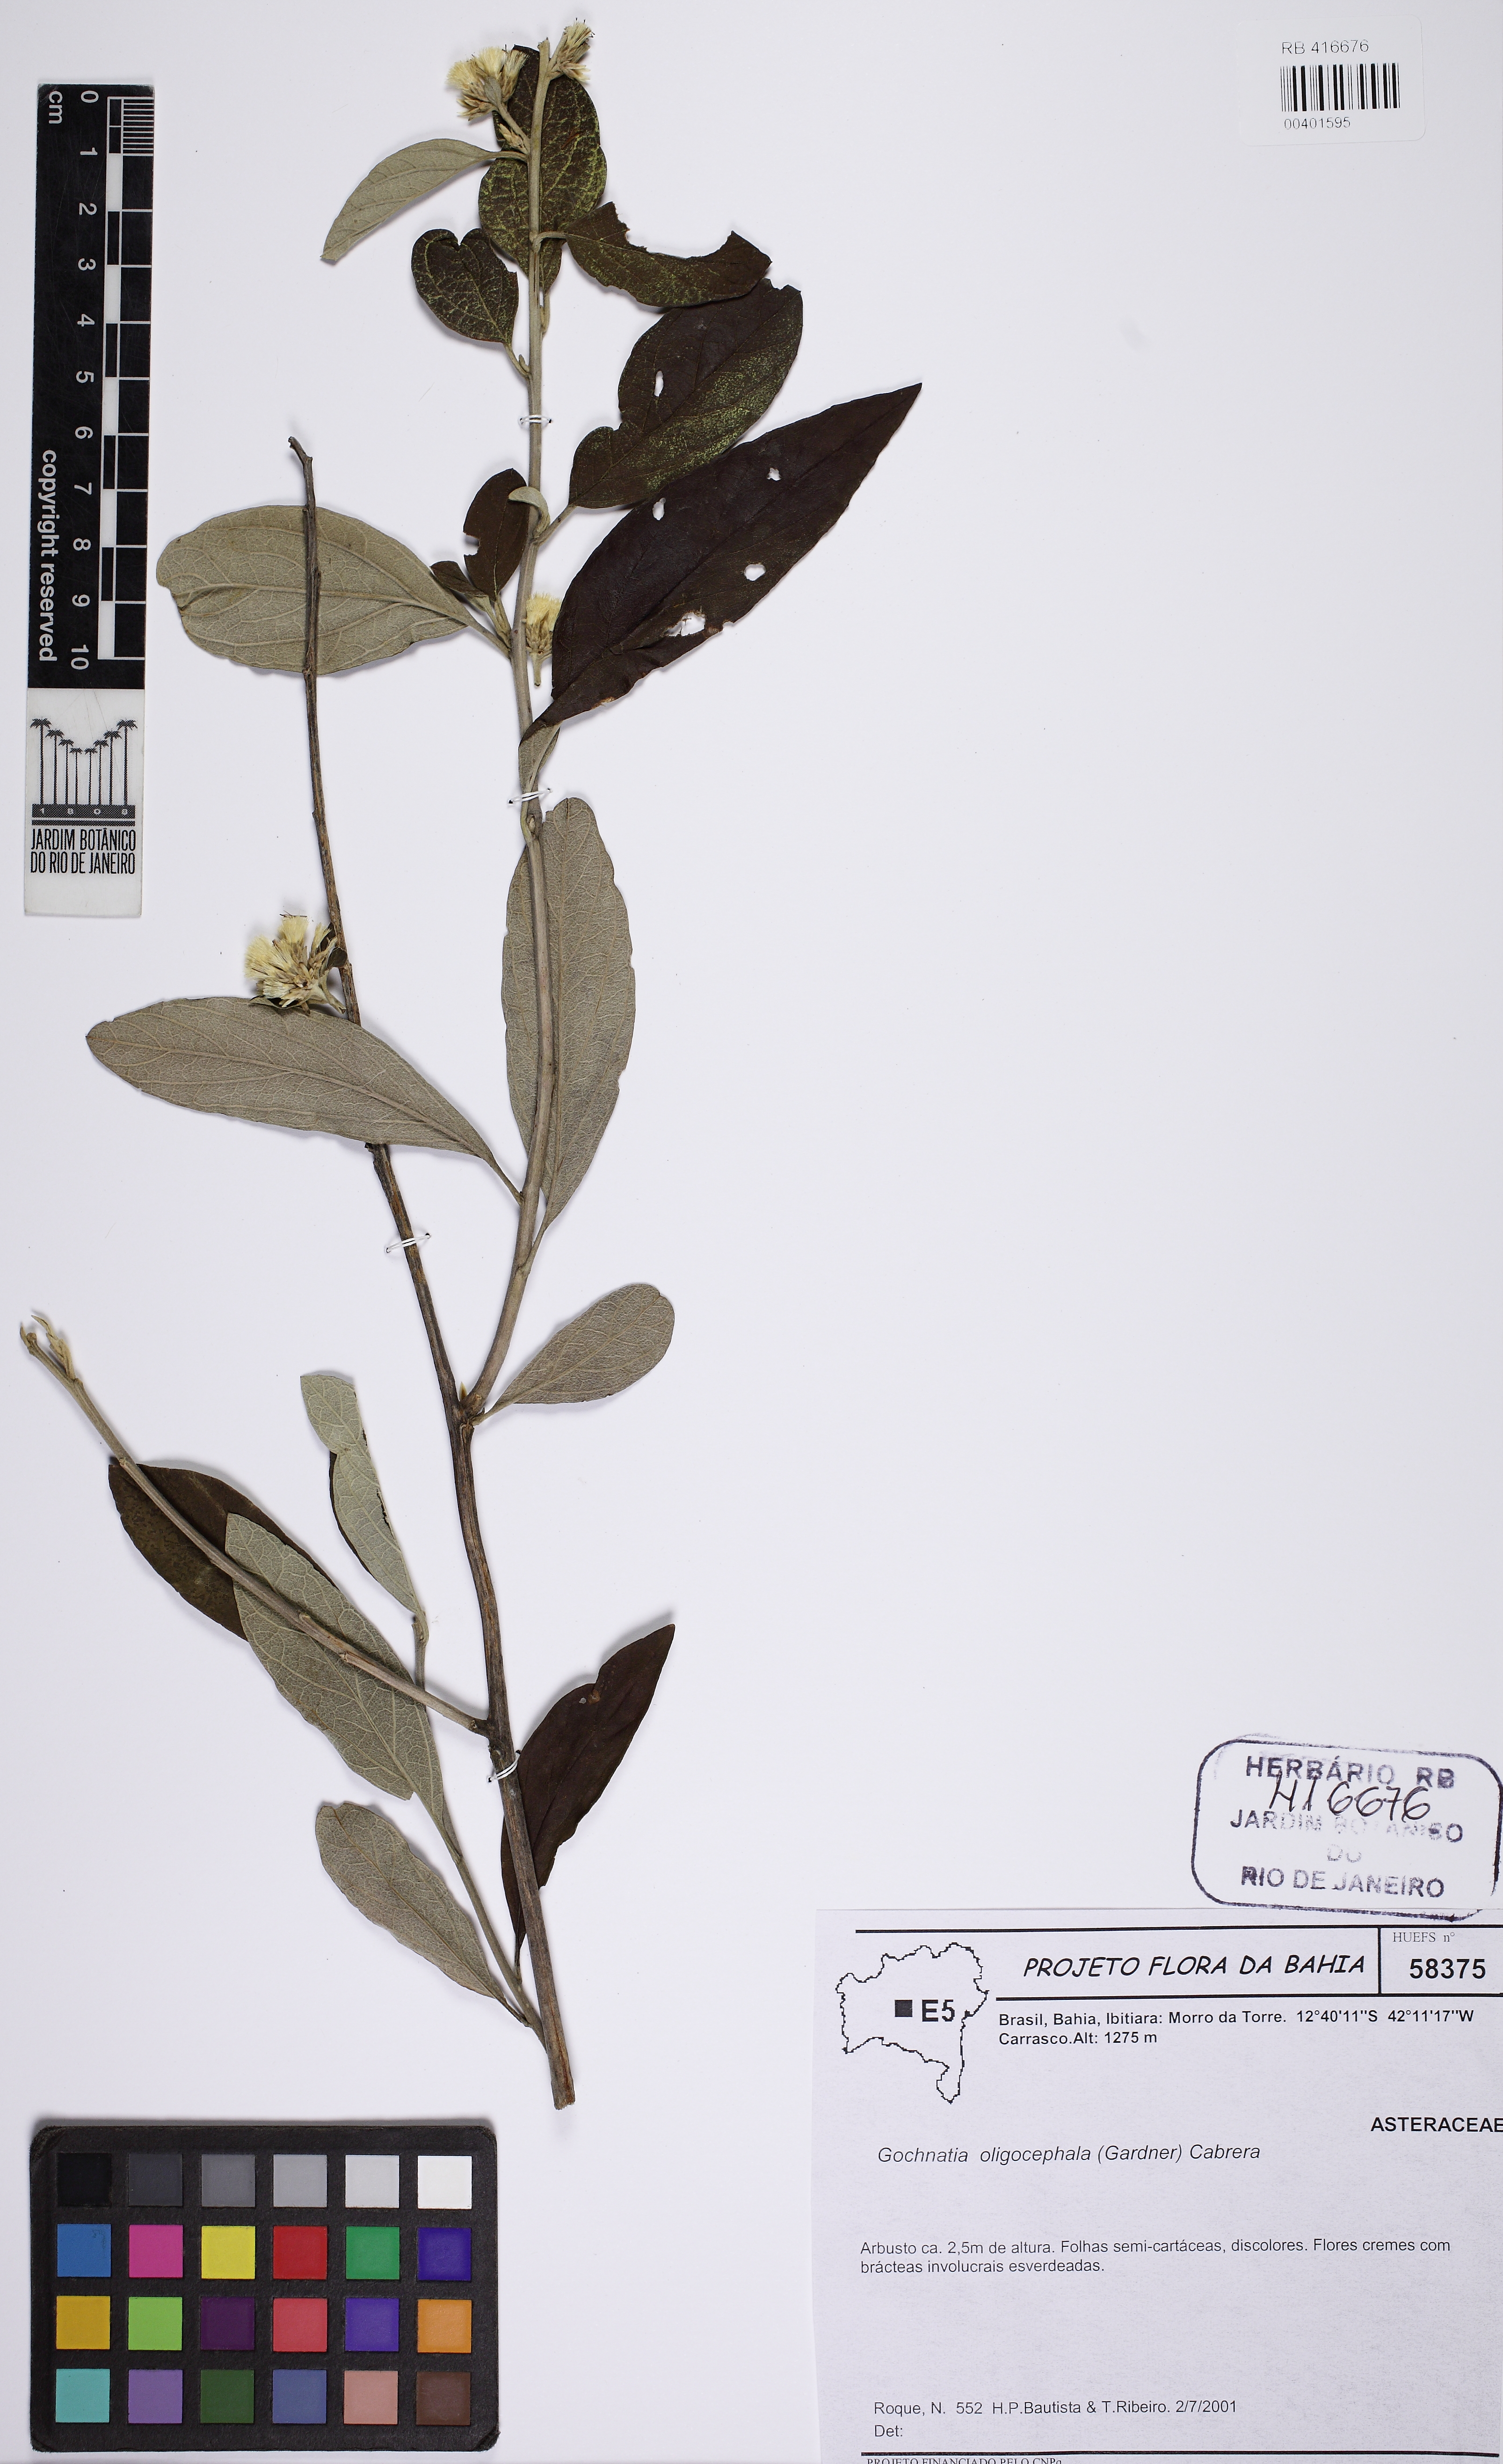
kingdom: Plantae
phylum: Tracheophyta
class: Magnoliopsida
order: Asterales
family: Asteraceae
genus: Moquiniastrum
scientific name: Moquiniastrum oligocephalum
